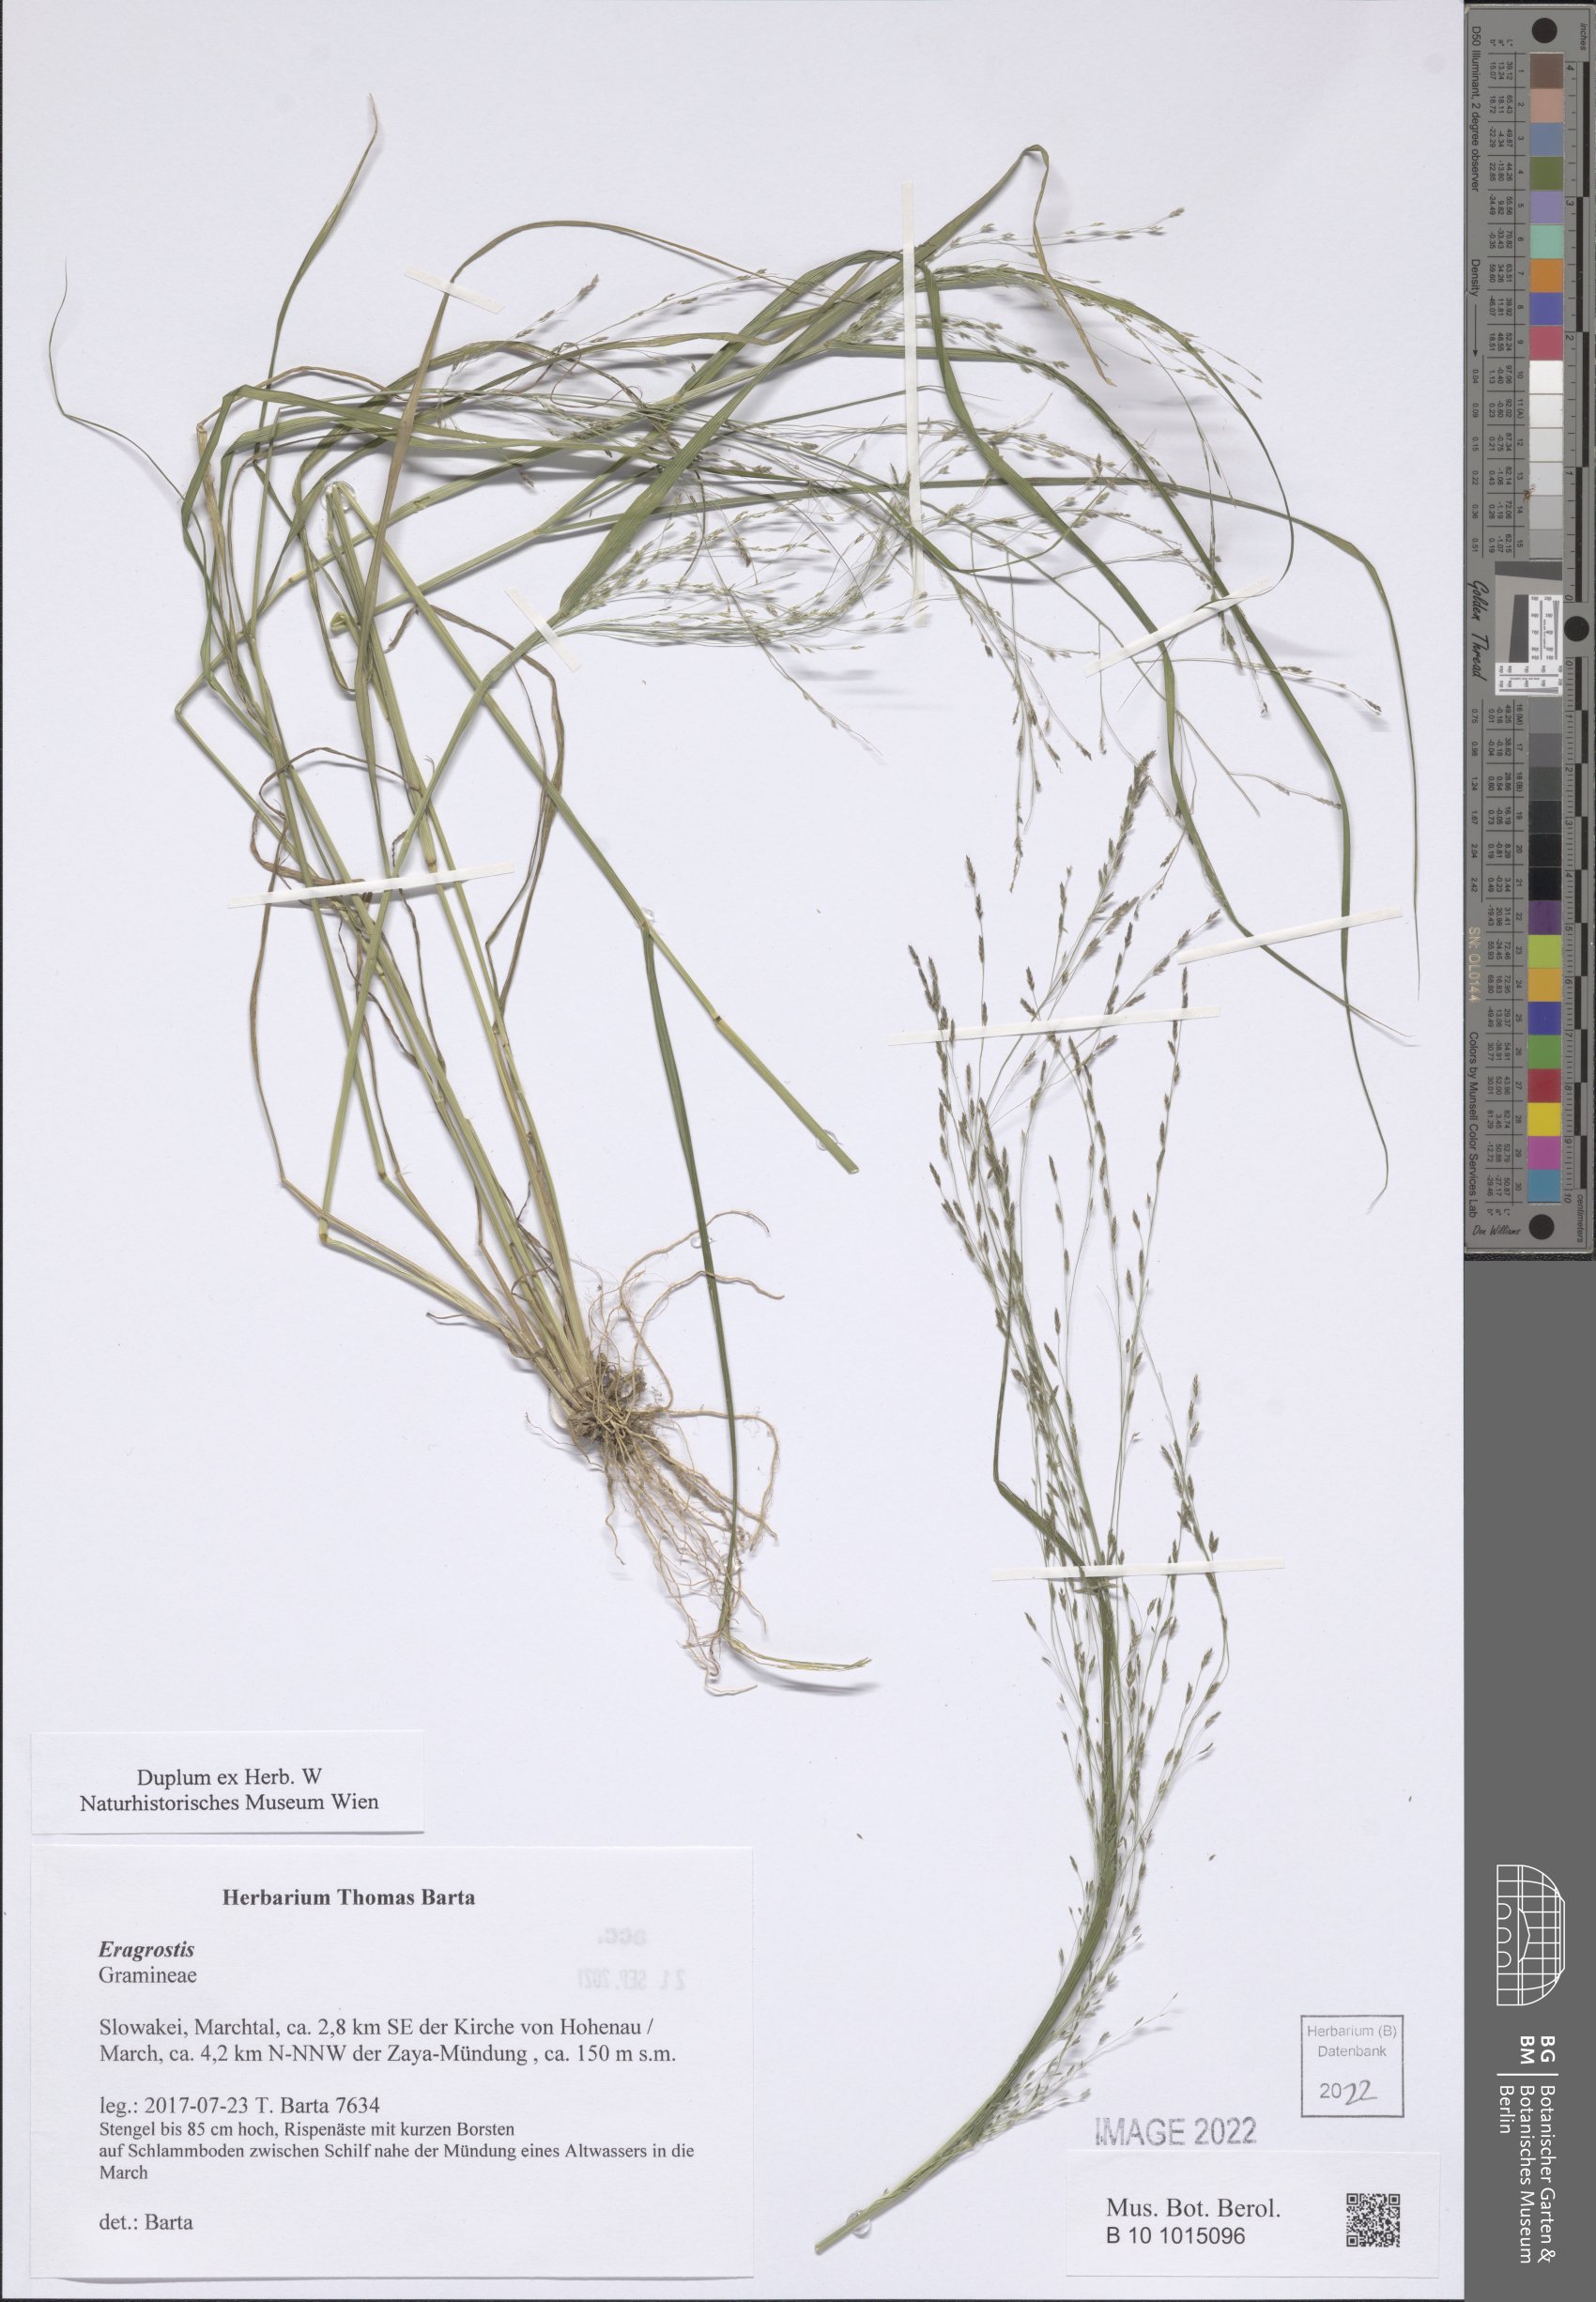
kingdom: Plantae
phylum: Tracheophyta
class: Liliopsida
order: Poales
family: Poaceae
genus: Eragrostis
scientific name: Eragrostis
